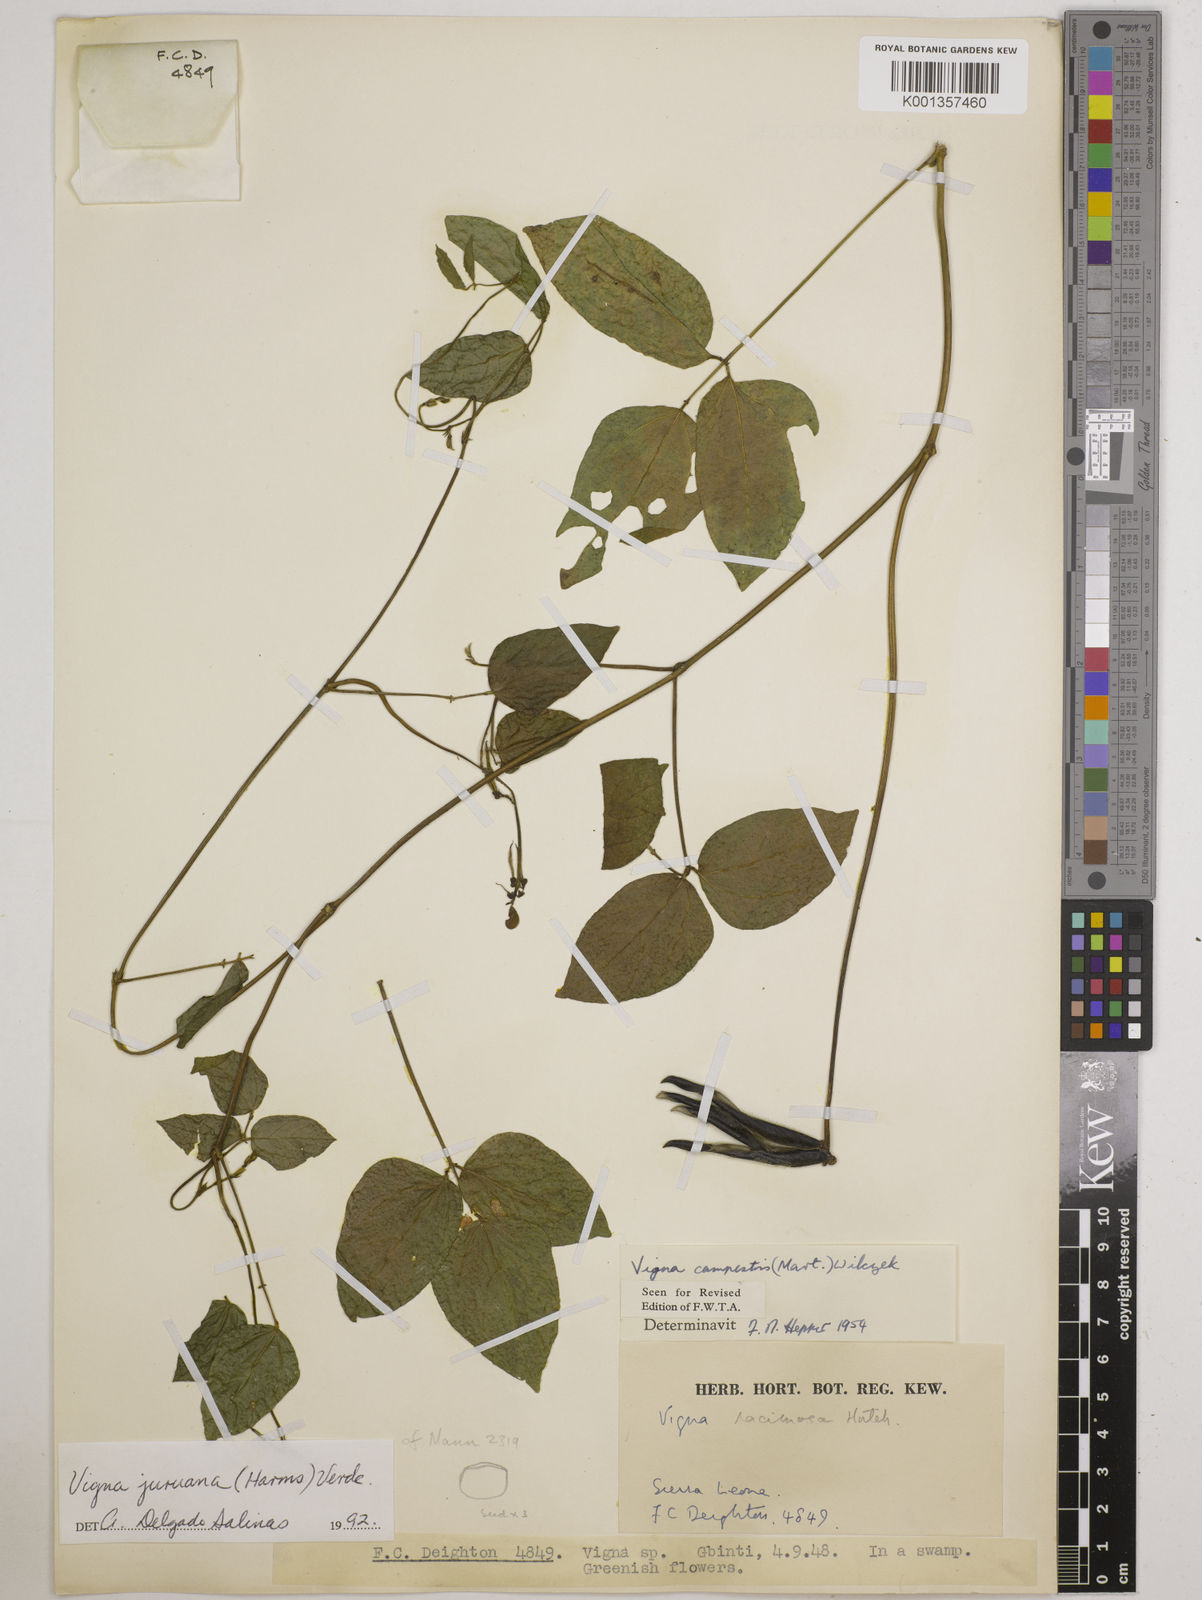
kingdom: Plantae
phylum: Tracheophyta
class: Magnoliopsida
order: Fabales
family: Fabaceae
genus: Vigna
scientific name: Vigna juruana
